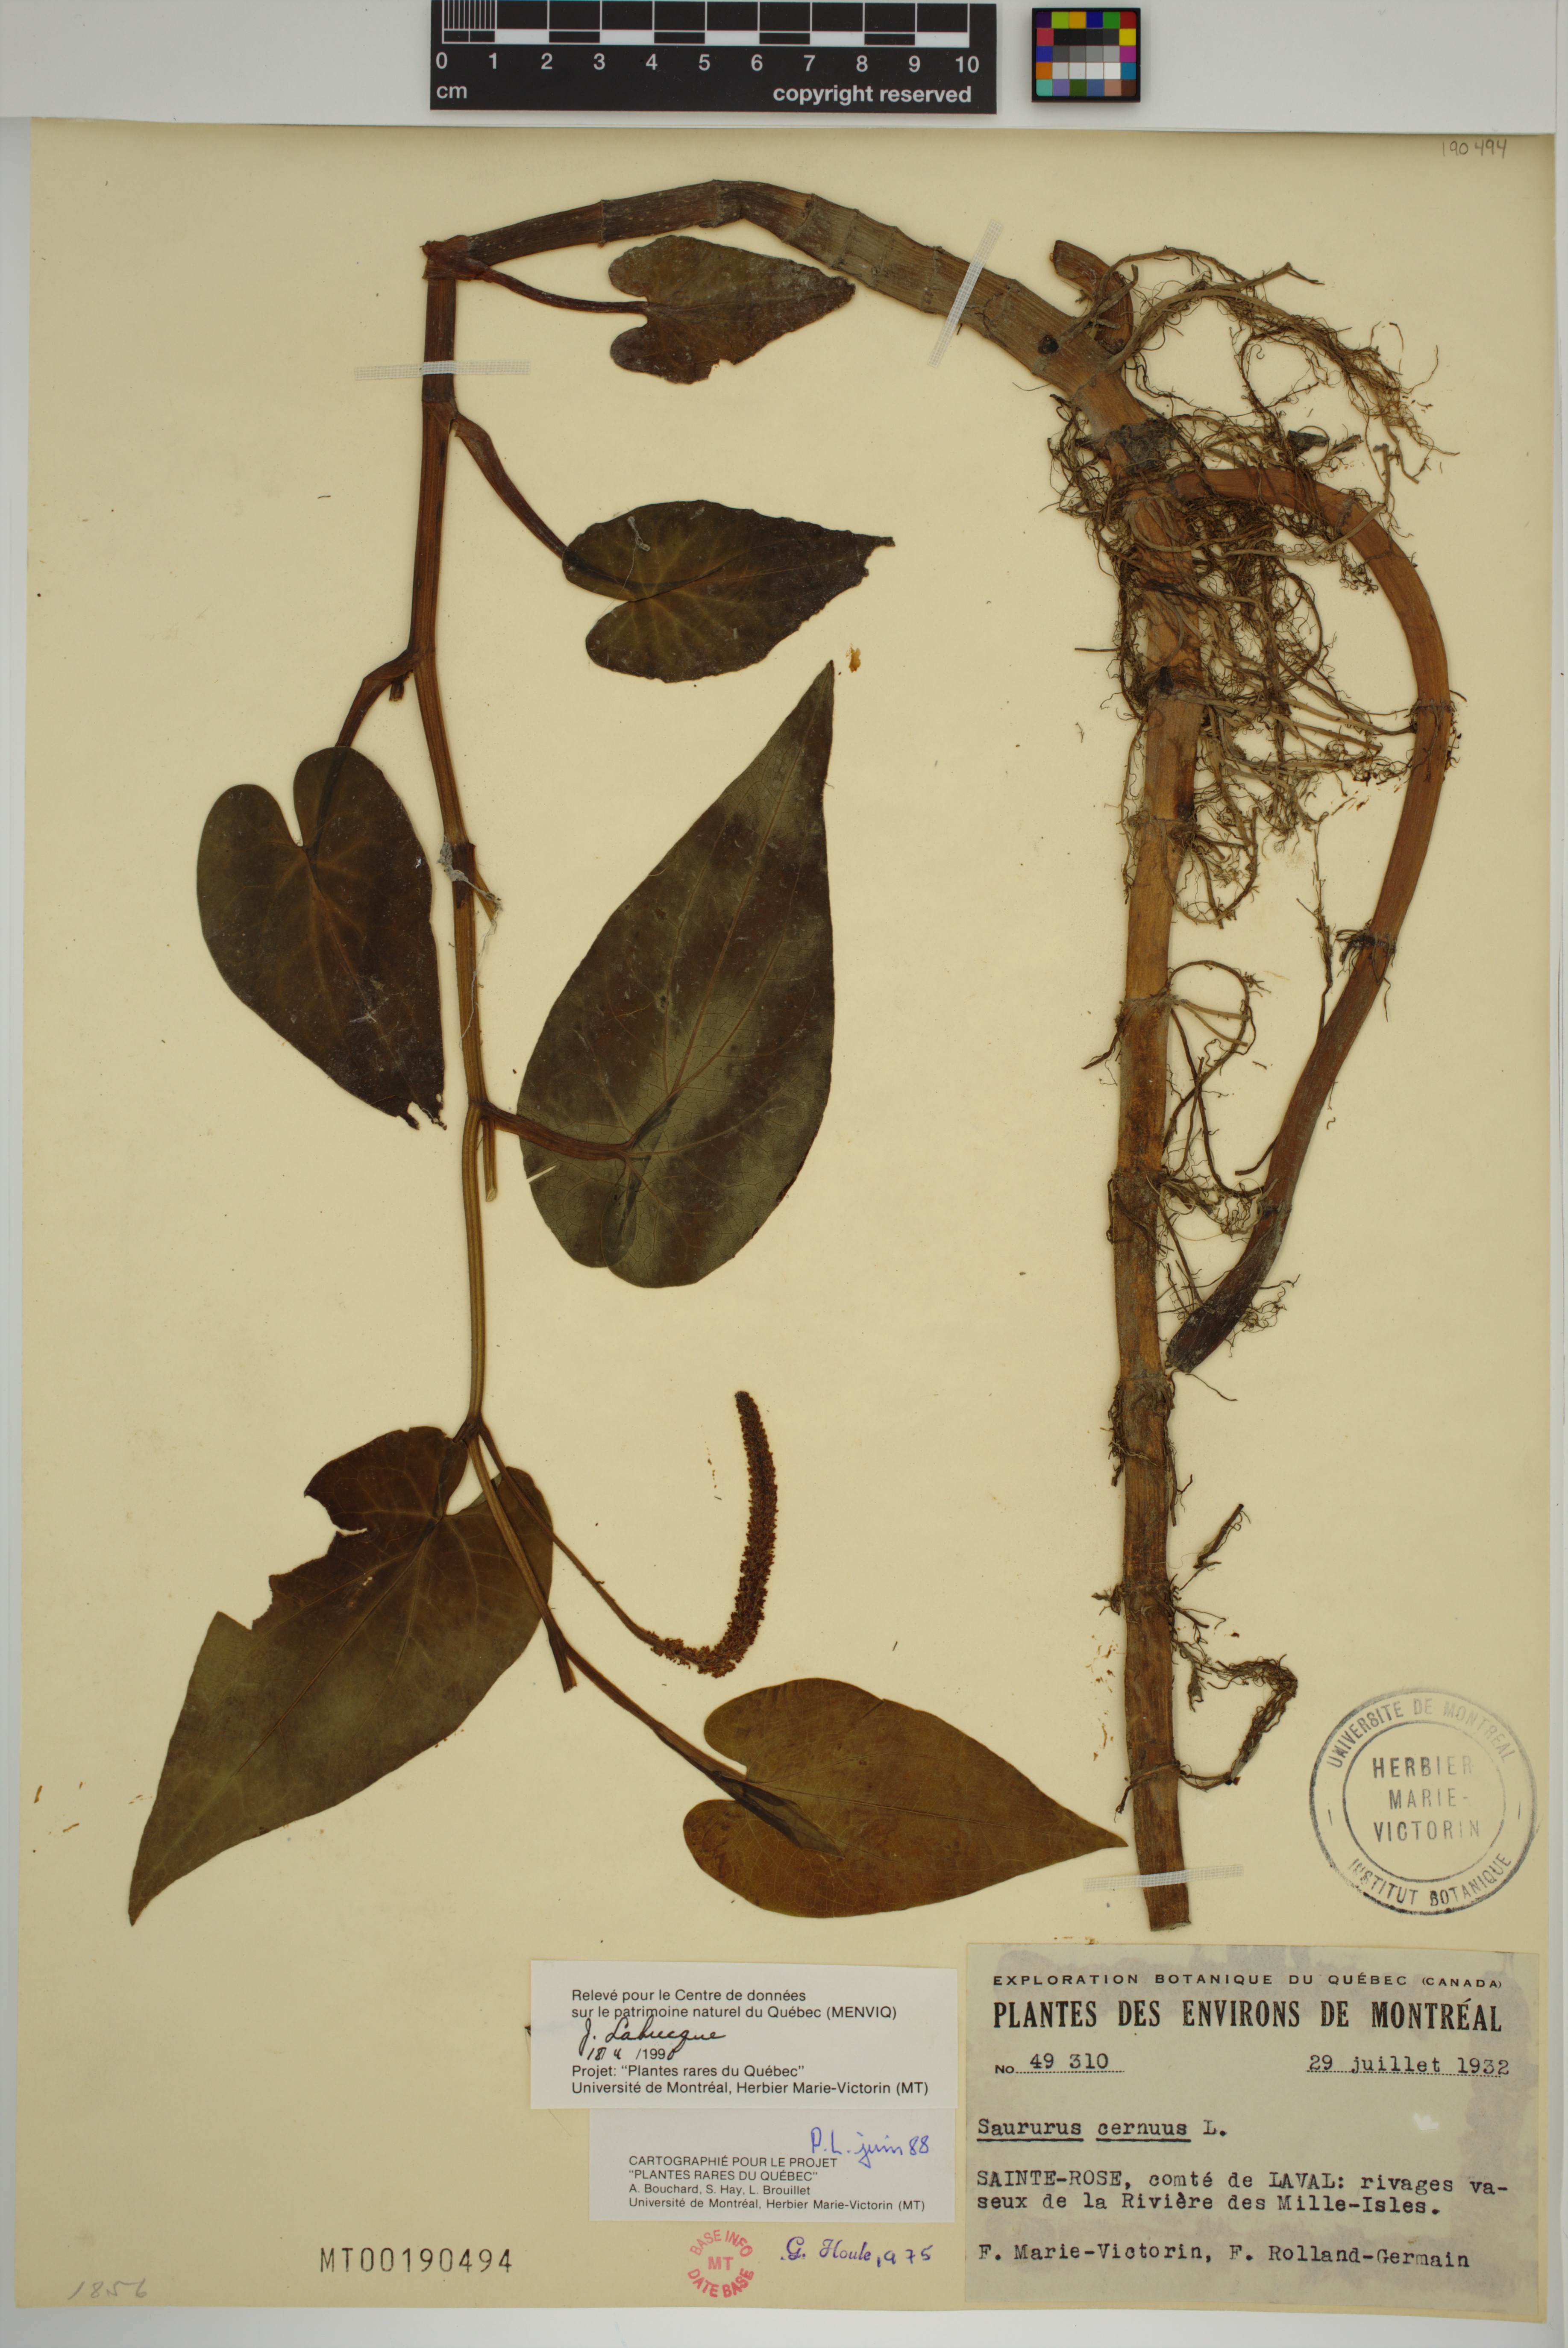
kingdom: Plantae
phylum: Tracheophyta
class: Magnoliopsida
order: Piperales
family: Saururaceae
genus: Saururus
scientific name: Saururus cernuus
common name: Lizard's-tail
